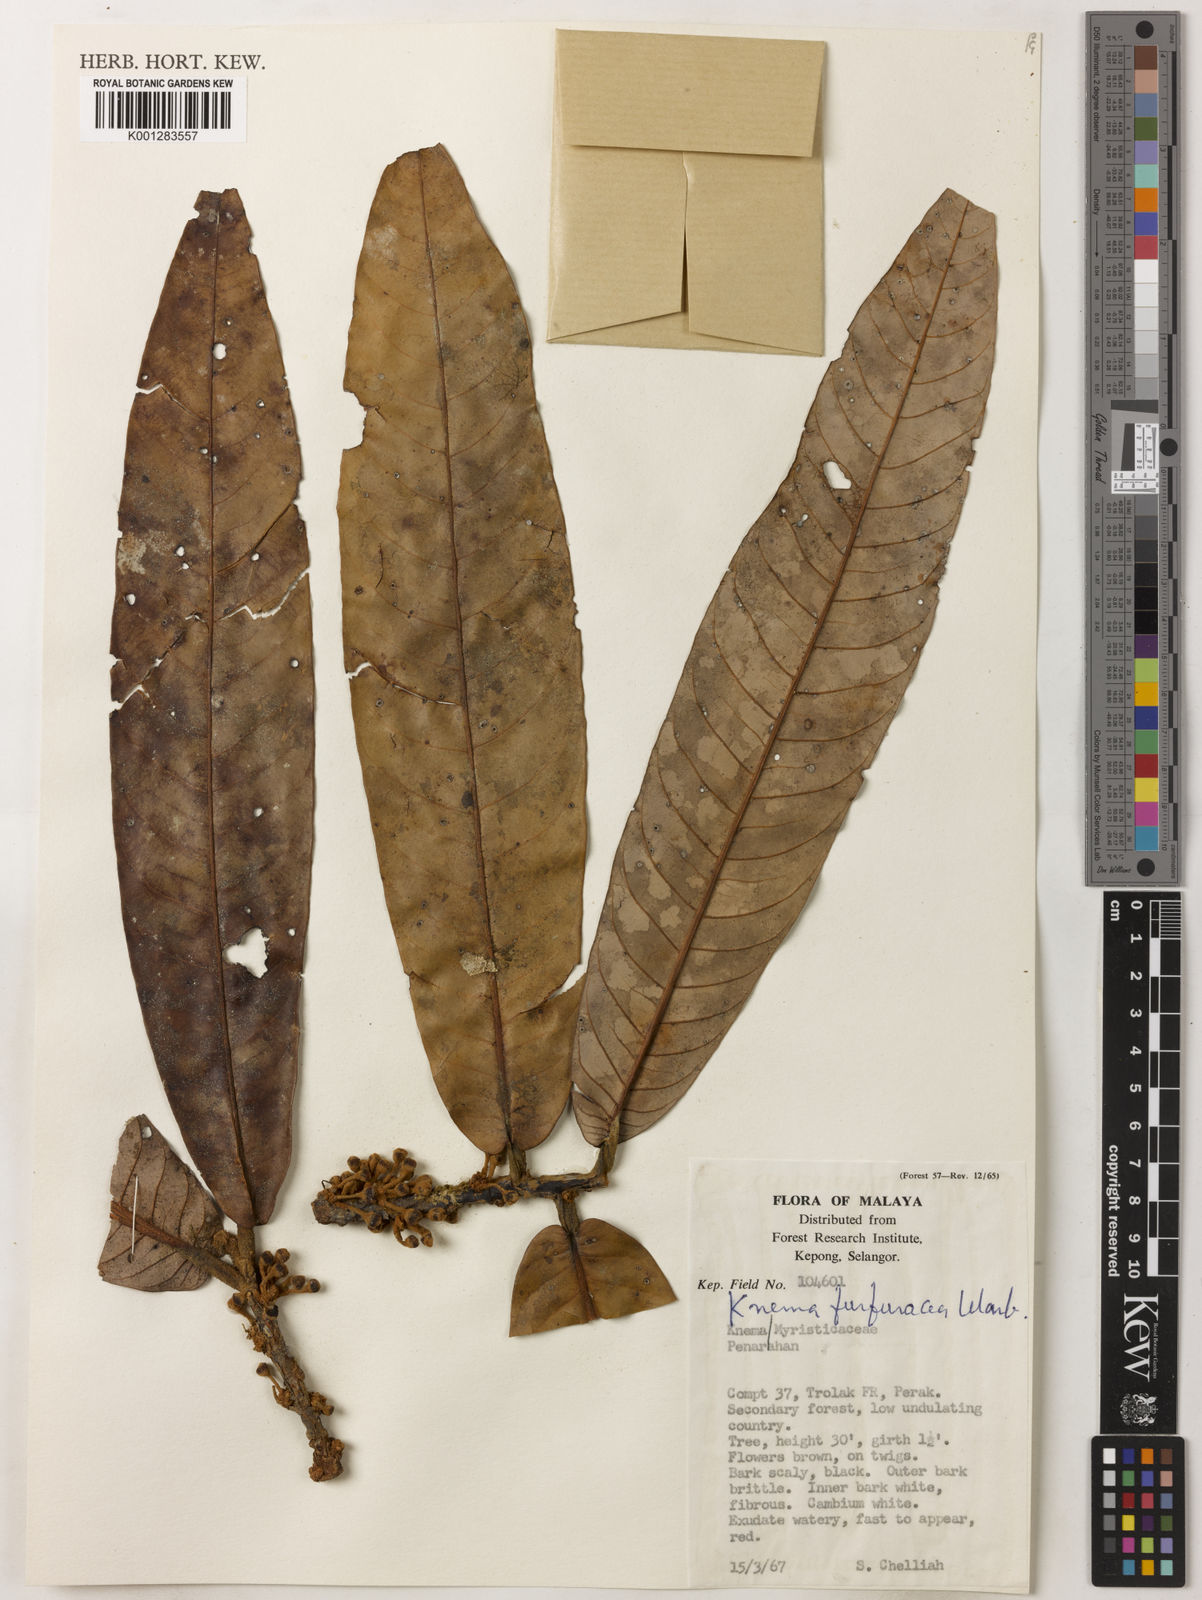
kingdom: Plantae
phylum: Tracheophyta
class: Magnoliopsida
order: Magnoliales
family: Myristicaceae
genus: Knema
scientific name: Knema furfuracea
